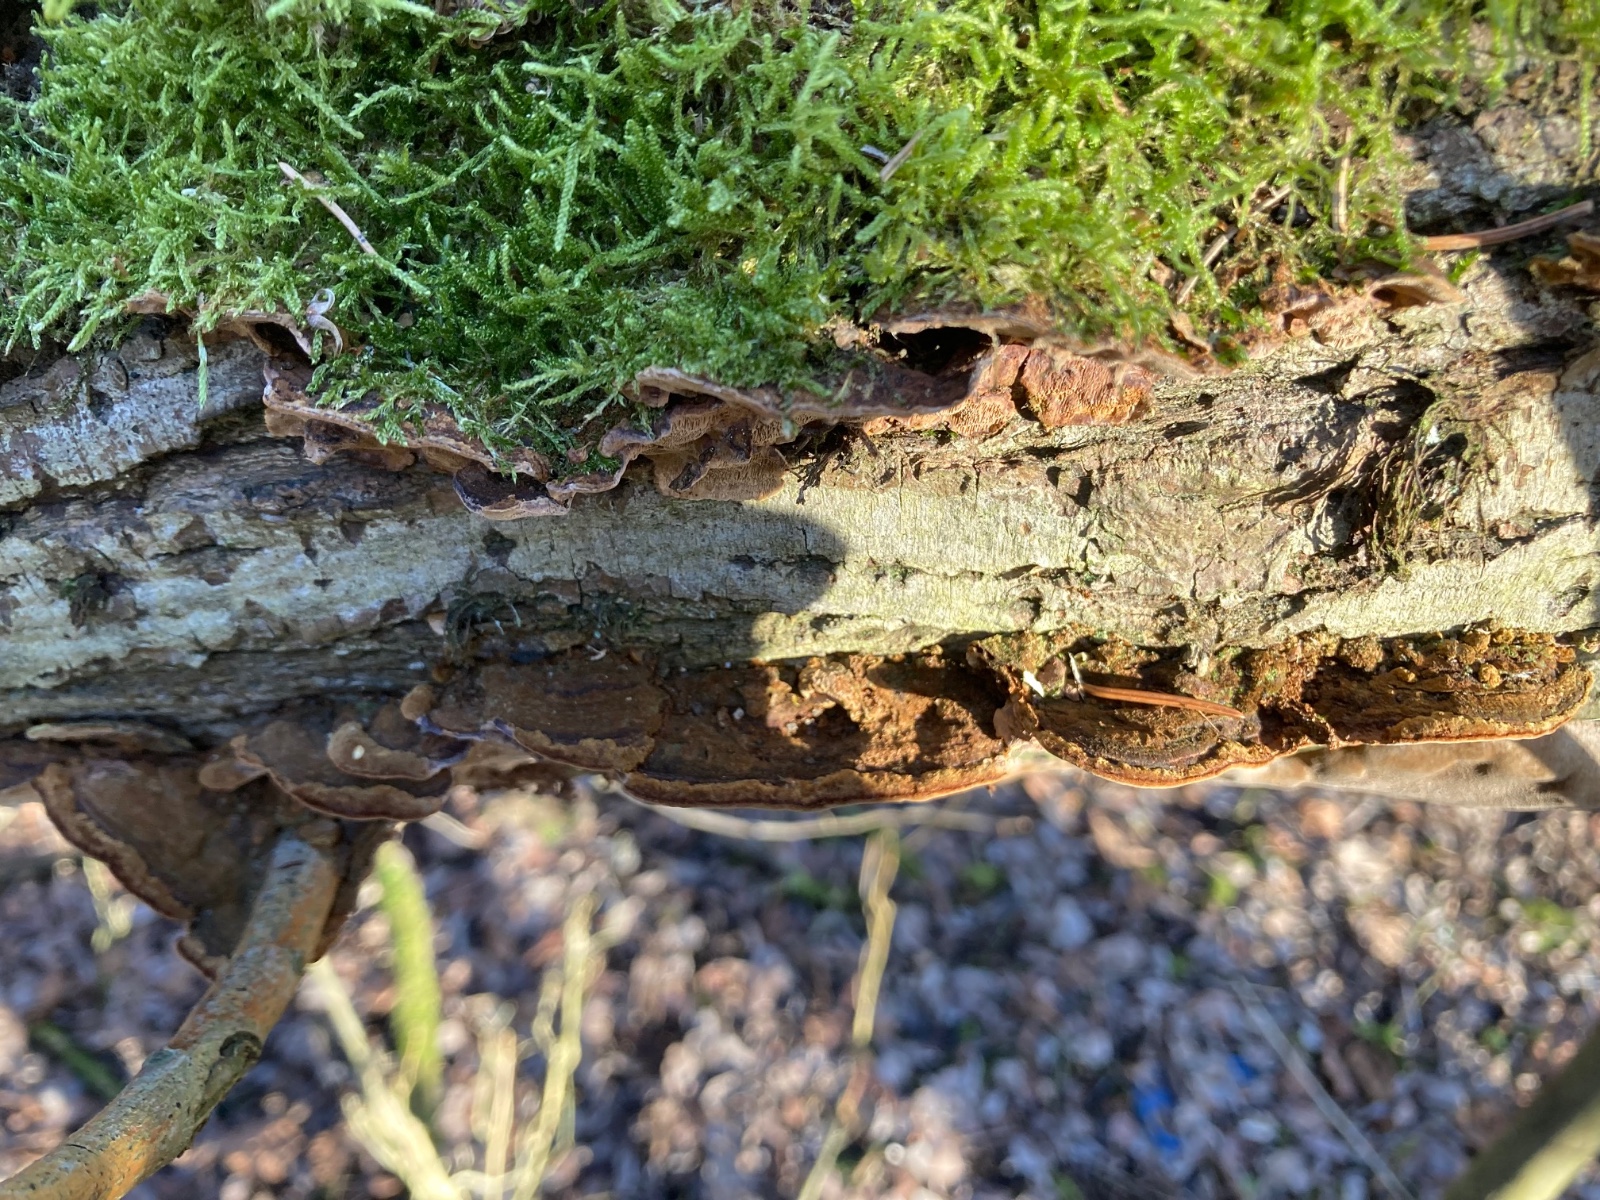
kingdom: Fungi
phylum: Basidiomycota
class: Agaricomycetes
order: Hymenochaetales
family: Hymenochaetaceae
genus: Phellinopsis
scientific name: Phellinopsis conchata
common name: pile-ildporesvamp
